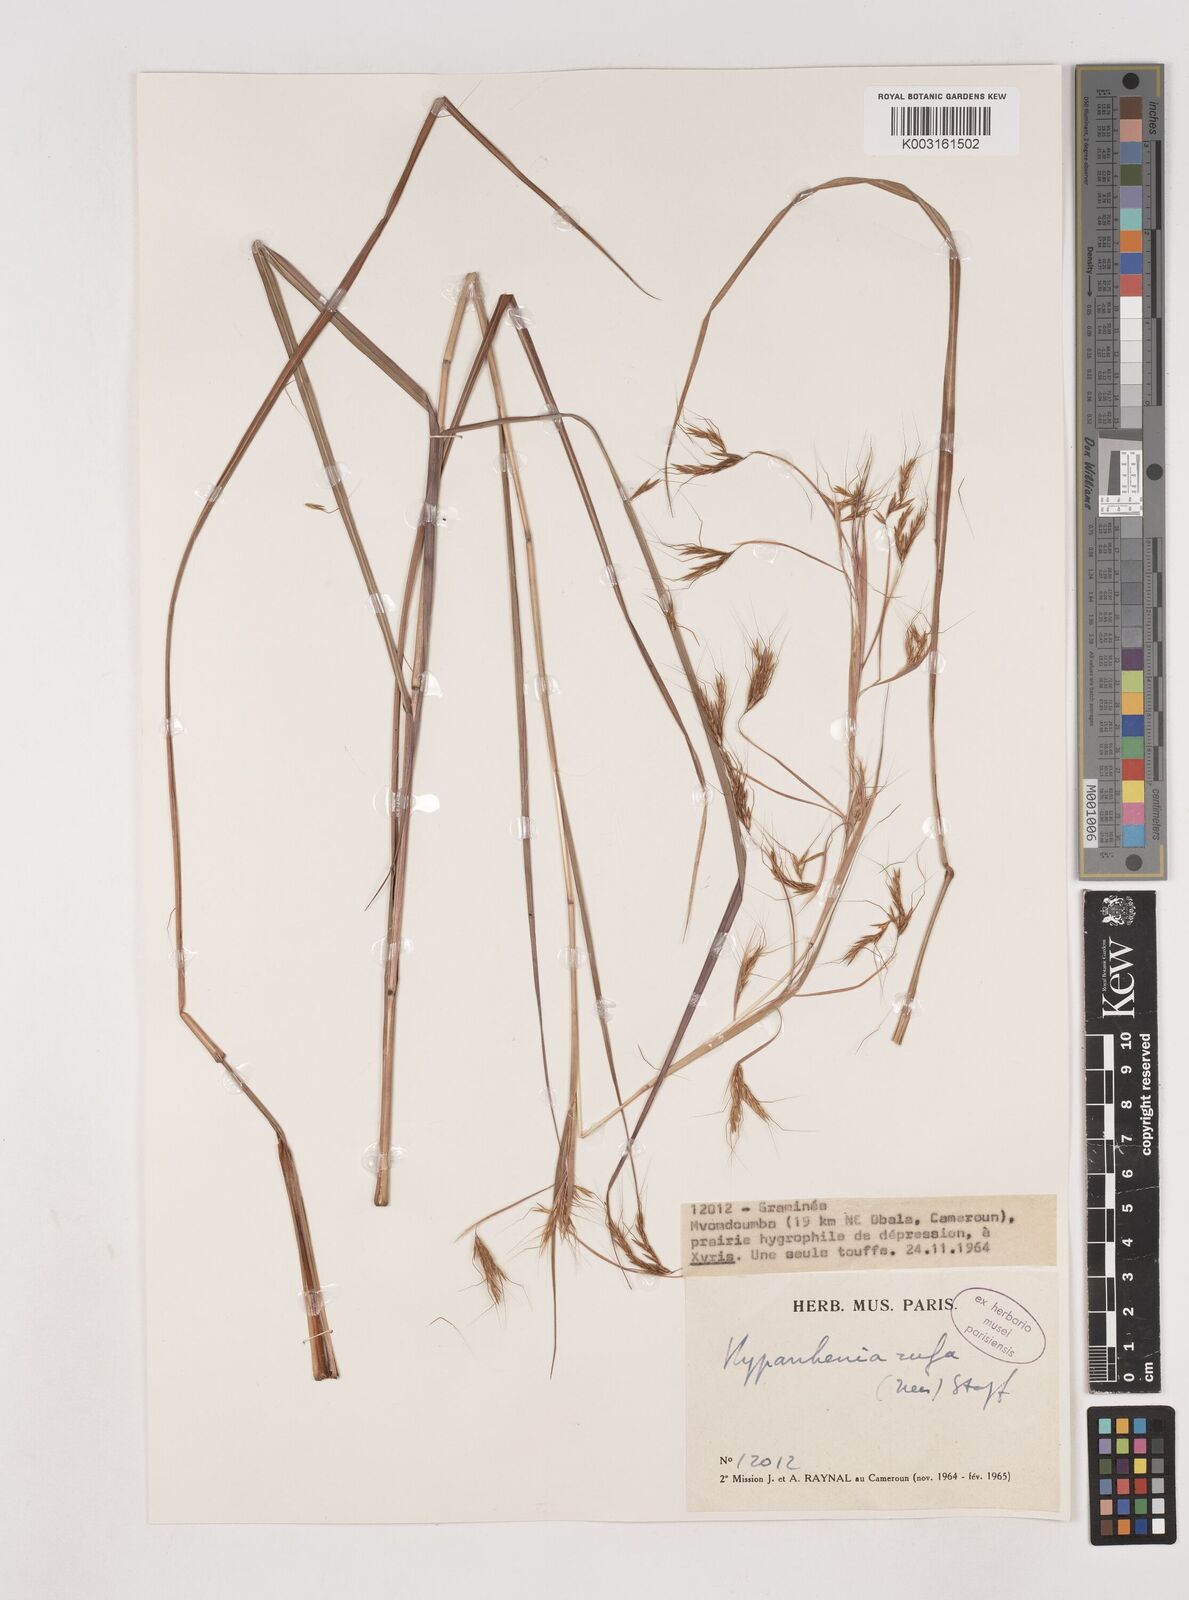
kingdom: Plantae
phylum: Tracheophyta
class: Liliopsida
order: Poales
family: Poaceae
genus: Hyparrhenia
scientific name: Hyparrhenia rufa
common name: Jaraguagrass
